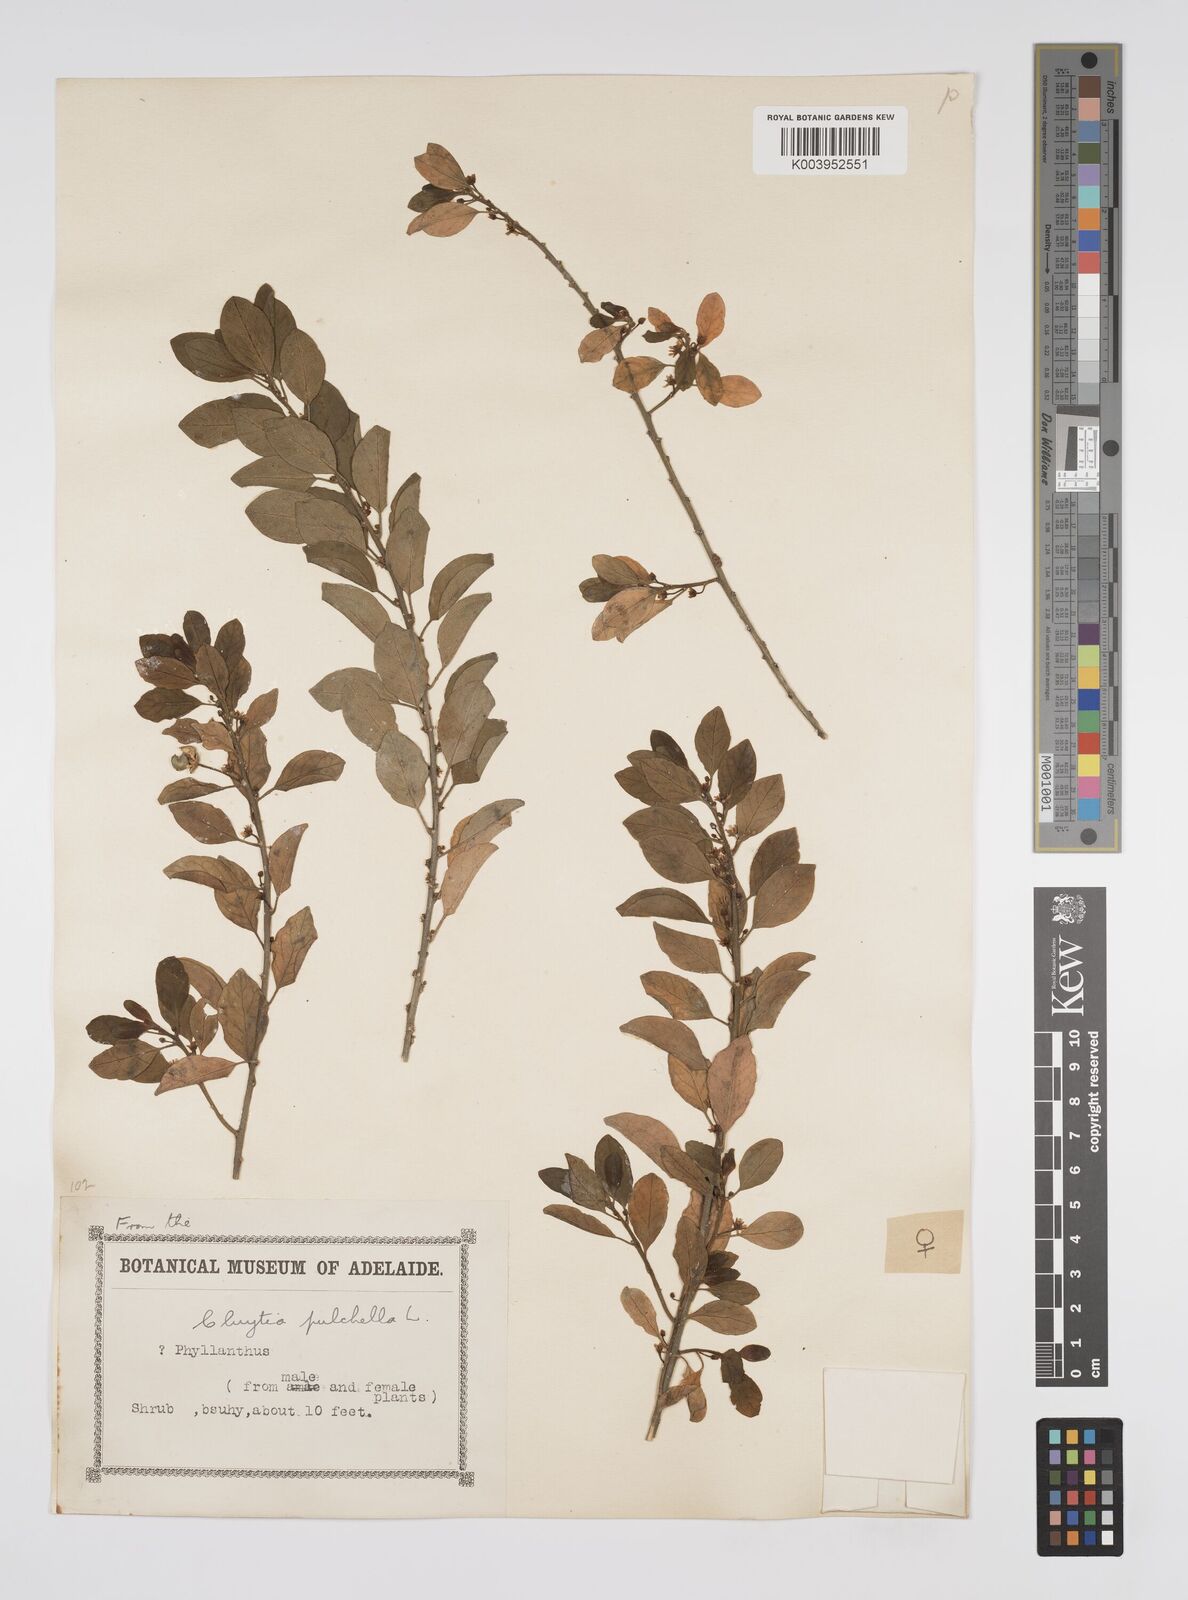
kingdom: Plantae
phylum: Tracheophyta
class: Magnoliopsida
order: Malpighiales
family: Peraceae
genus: Clutia
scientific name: Clutia pulchella
